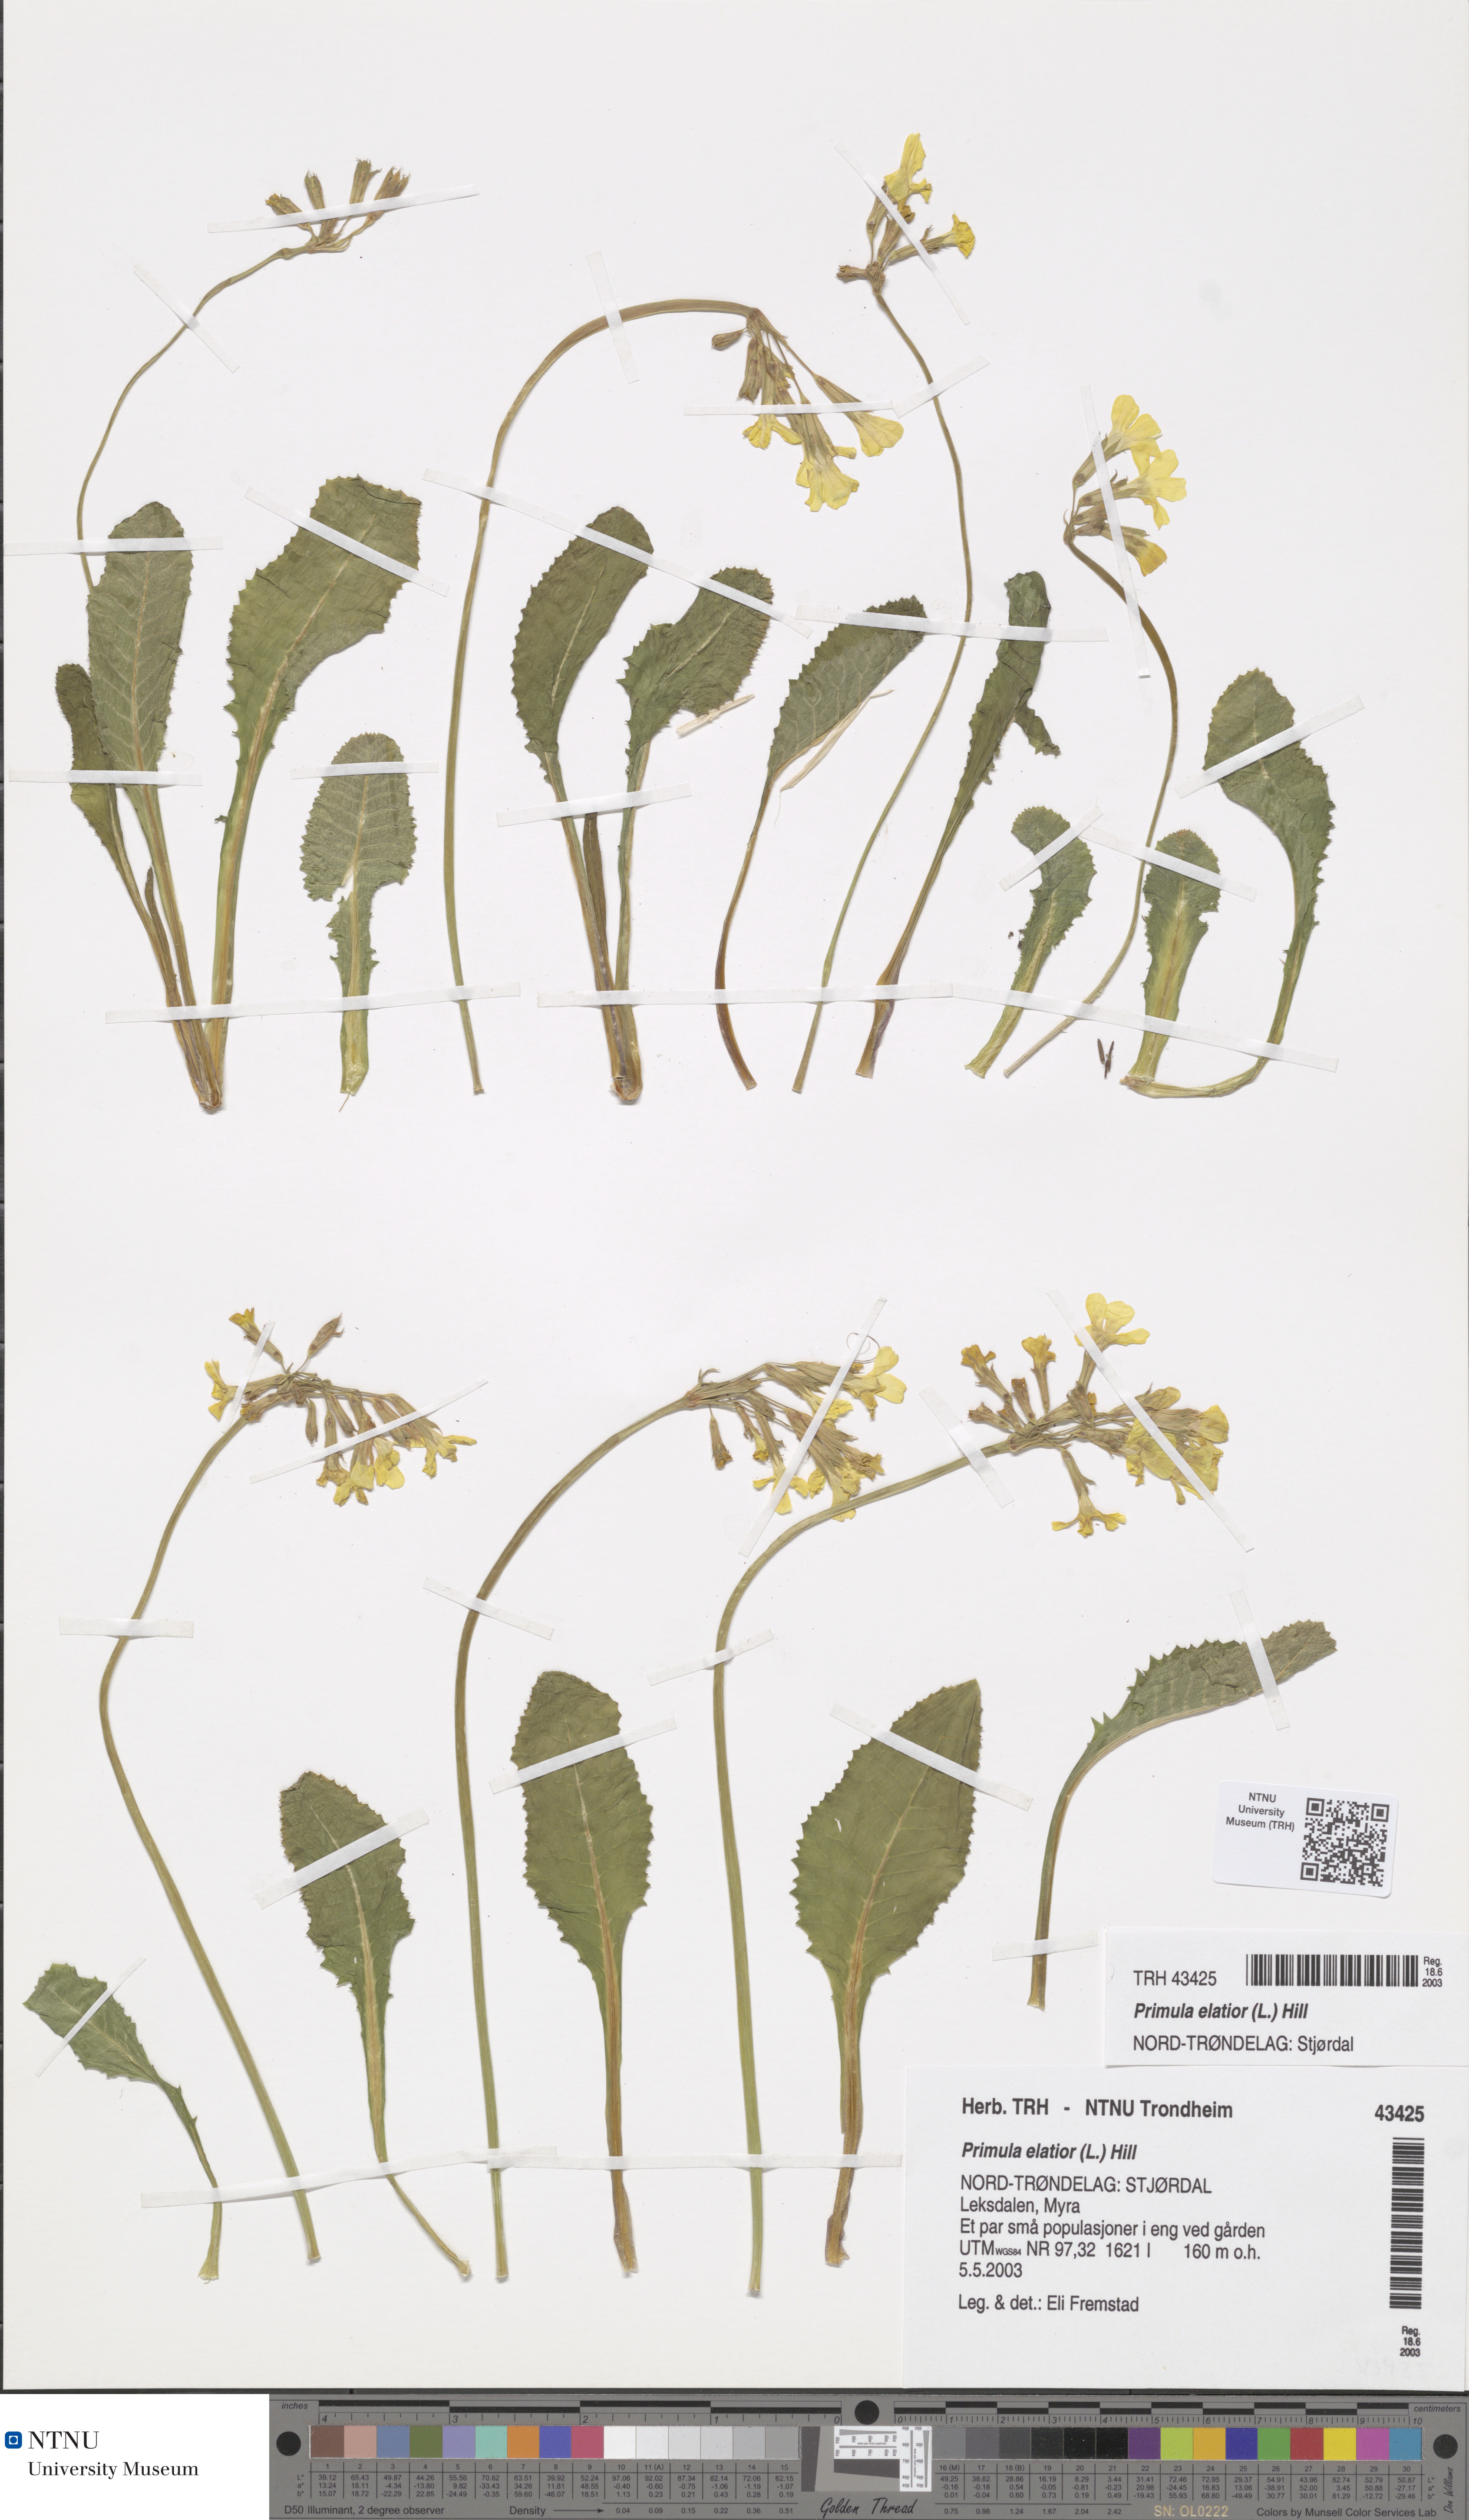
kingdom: Plantae
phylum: Tracheophyta
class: Magnoliopsida
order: Ericales
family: Primulaceae
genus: Primula
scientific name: Primula elatior
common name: Oxlip
